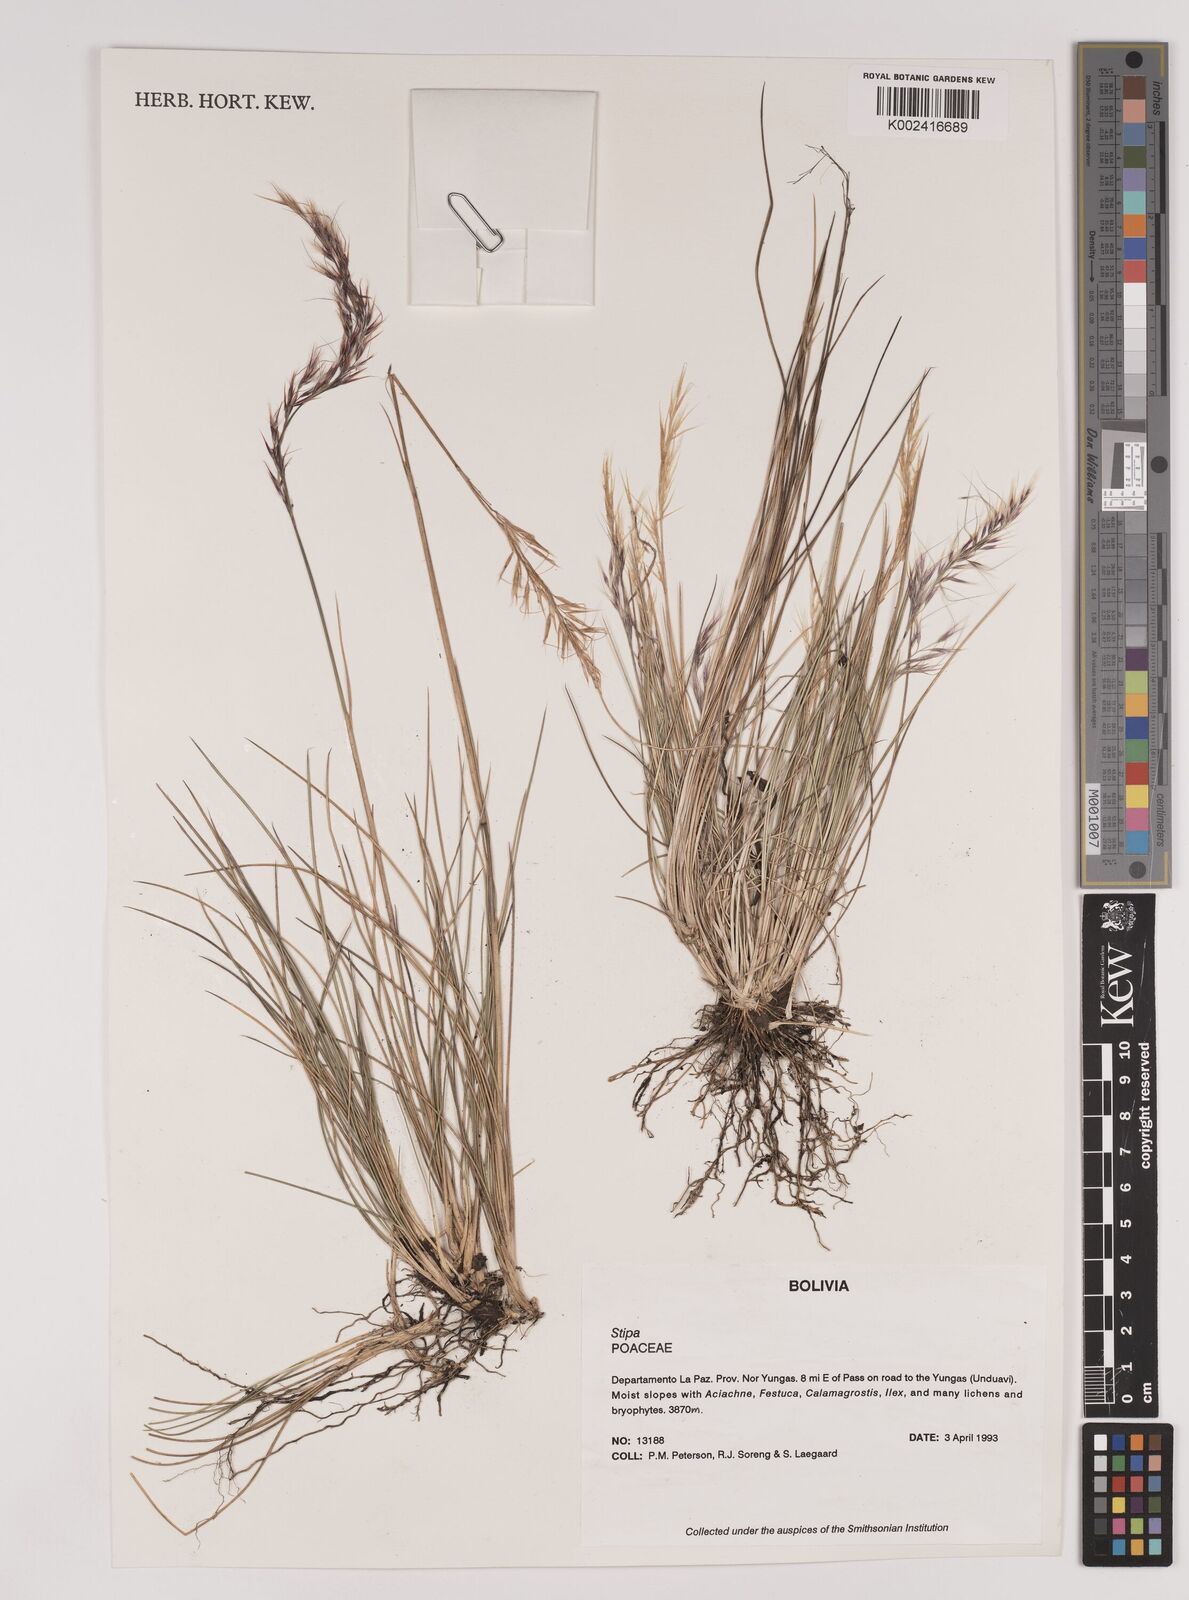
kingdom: Plantae
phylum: Tracheophyta
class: Liliopsida
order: Poales
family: Poaceae
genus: Stipa
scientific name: Stipa hans-meyeri
